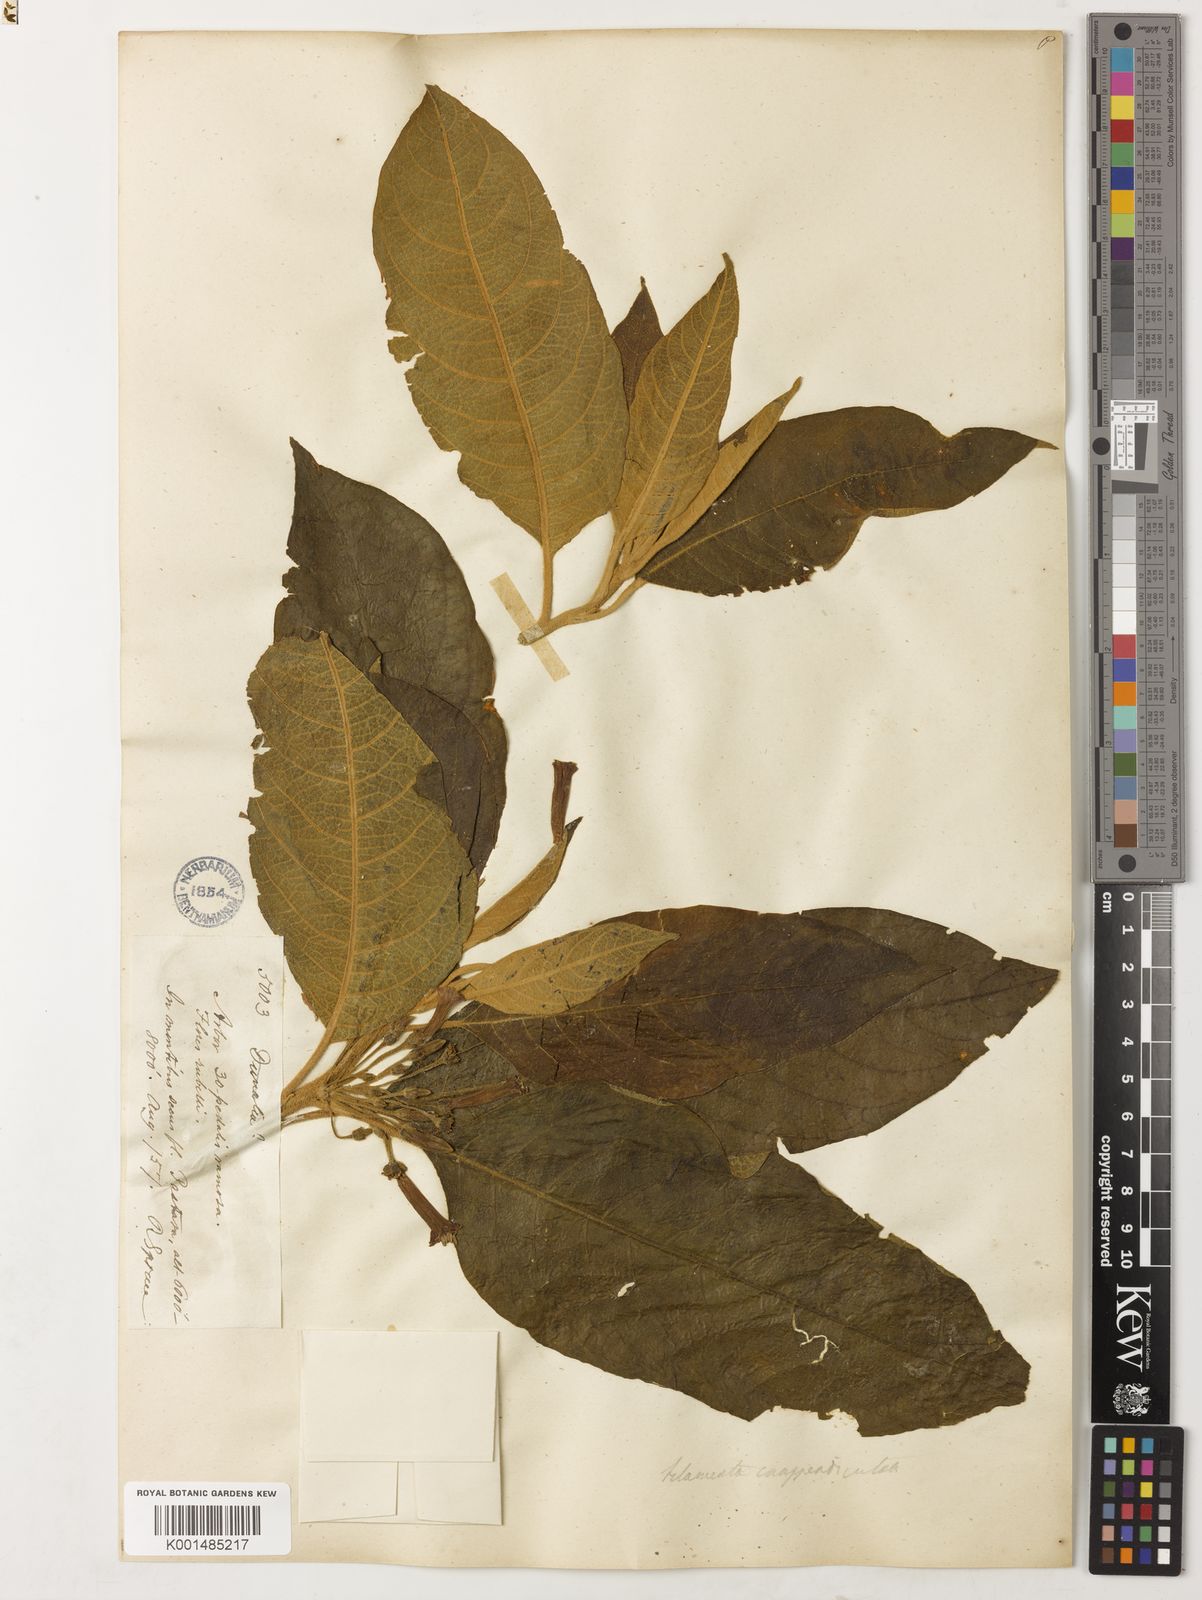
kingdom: Plantae
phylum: Tracheophyta
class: Magnoliopsida
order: Solanales
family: Solanaceae
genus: Iochroma
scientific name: Iochroma gesnerioides
